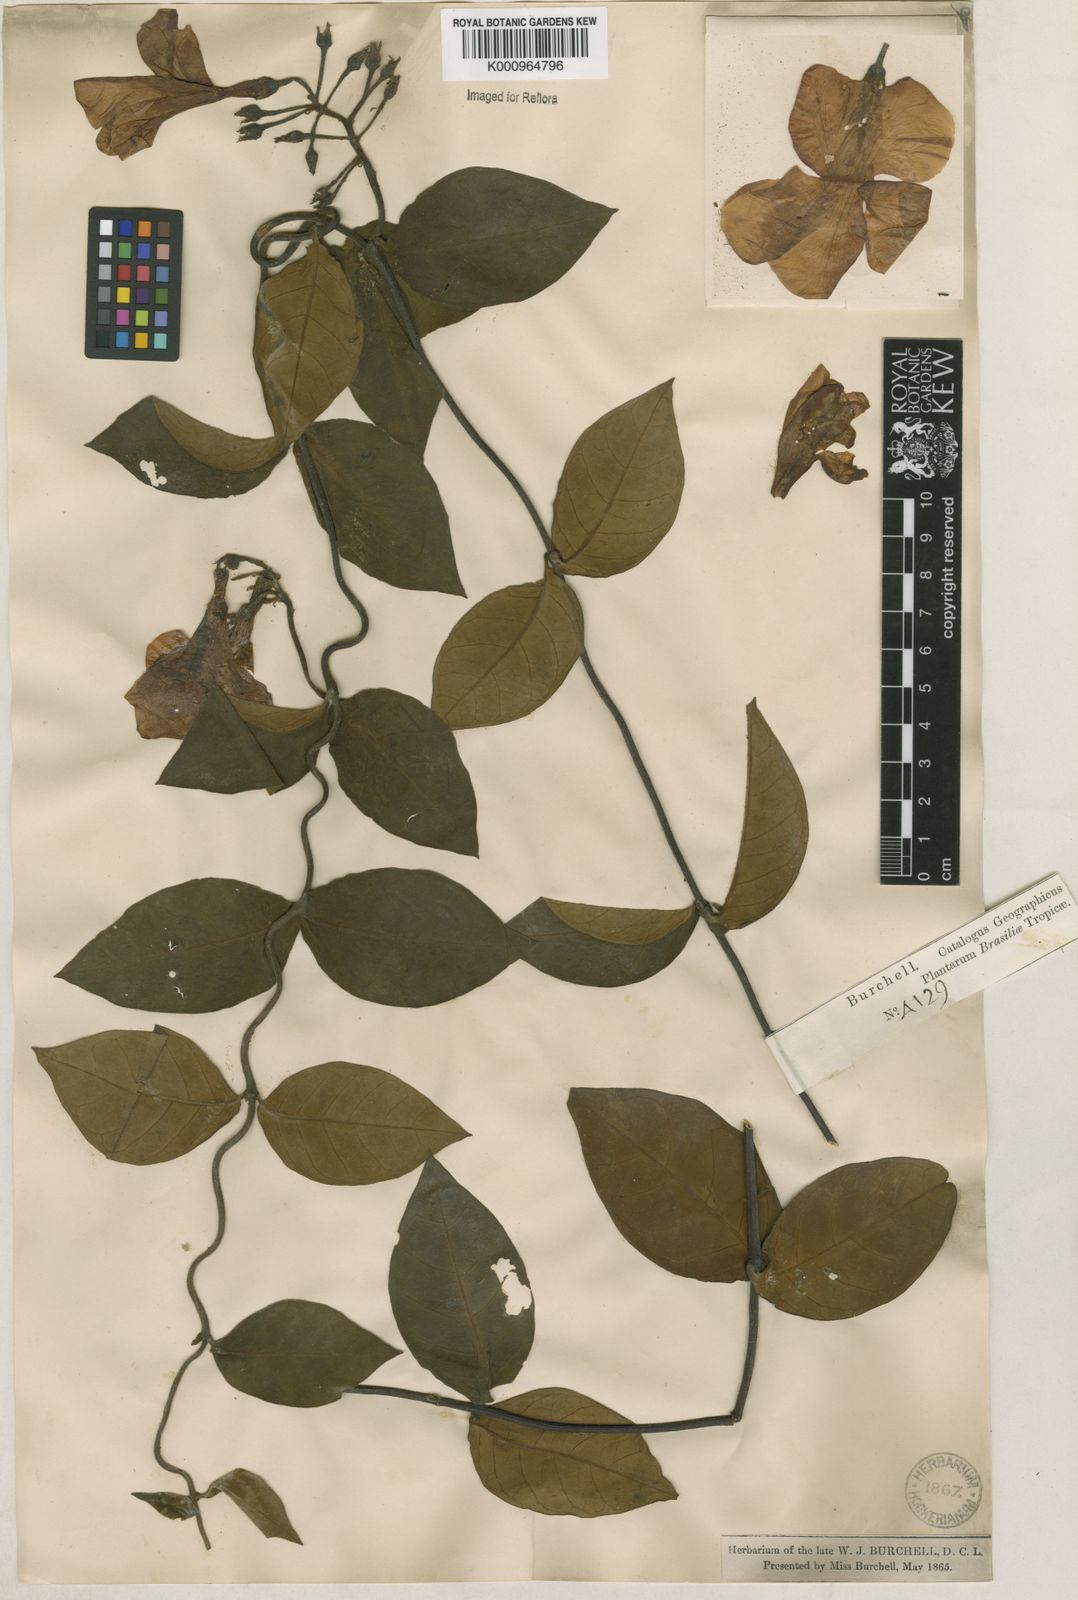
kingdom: Plantae
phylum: Tracheophyta
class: Magnoliopsida
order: Gentianales
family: Apocynaceae
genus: Temnadenia
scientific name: Temnadenia violacea
